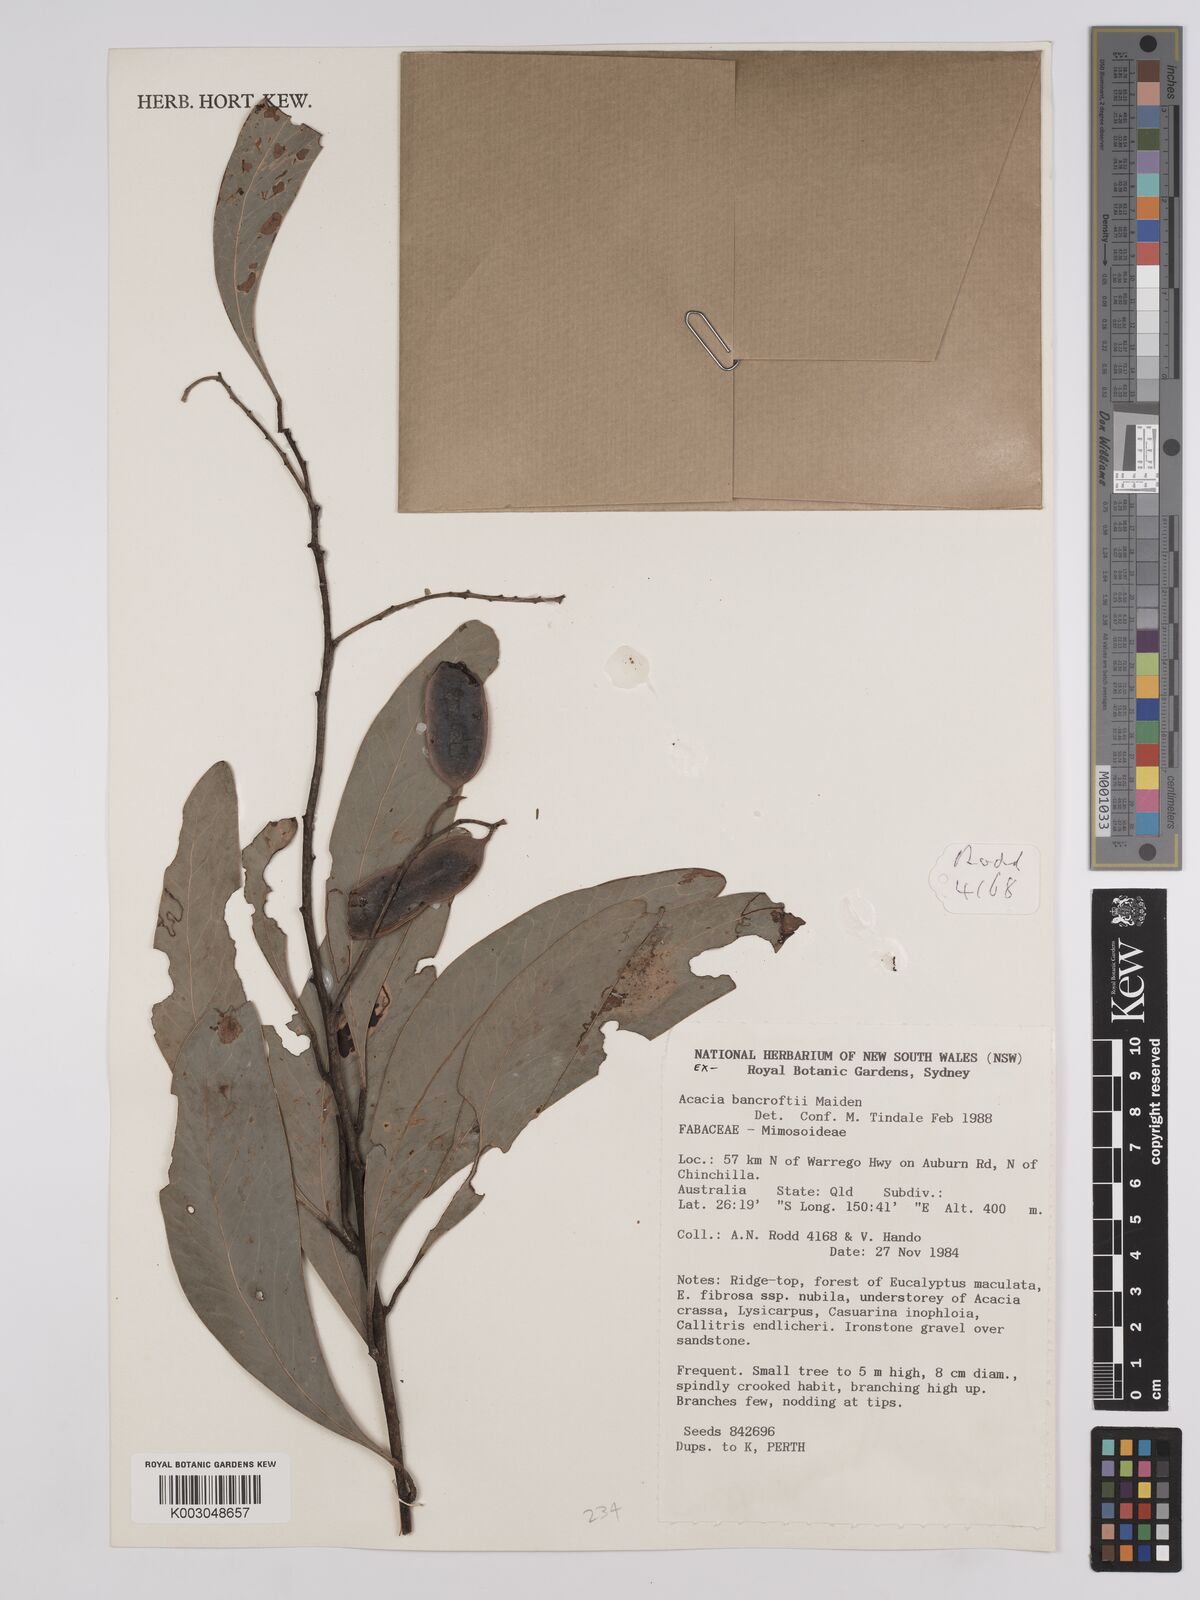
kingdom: Plantae
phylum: Tracheophyta
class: Magnoliopsida
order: Fabales
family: Fabaceae
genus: Acacia
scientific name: Acacia
